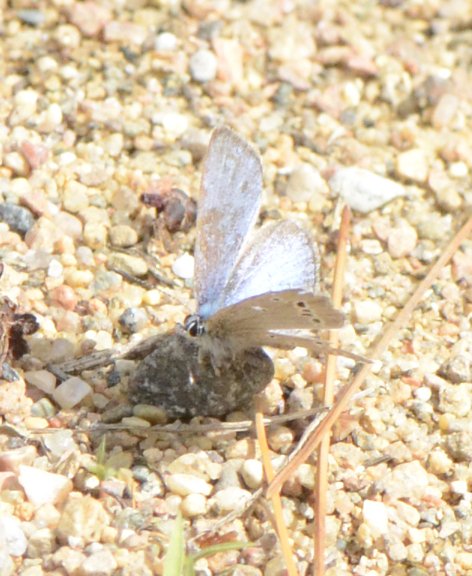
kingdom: Animalia
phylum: Arthropoda
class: Insecta
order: Lepidoptera
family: Lycaenidae
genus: Glaucopsyche
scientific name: Glaucopsyche lygdamus
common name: Silvery Blue
